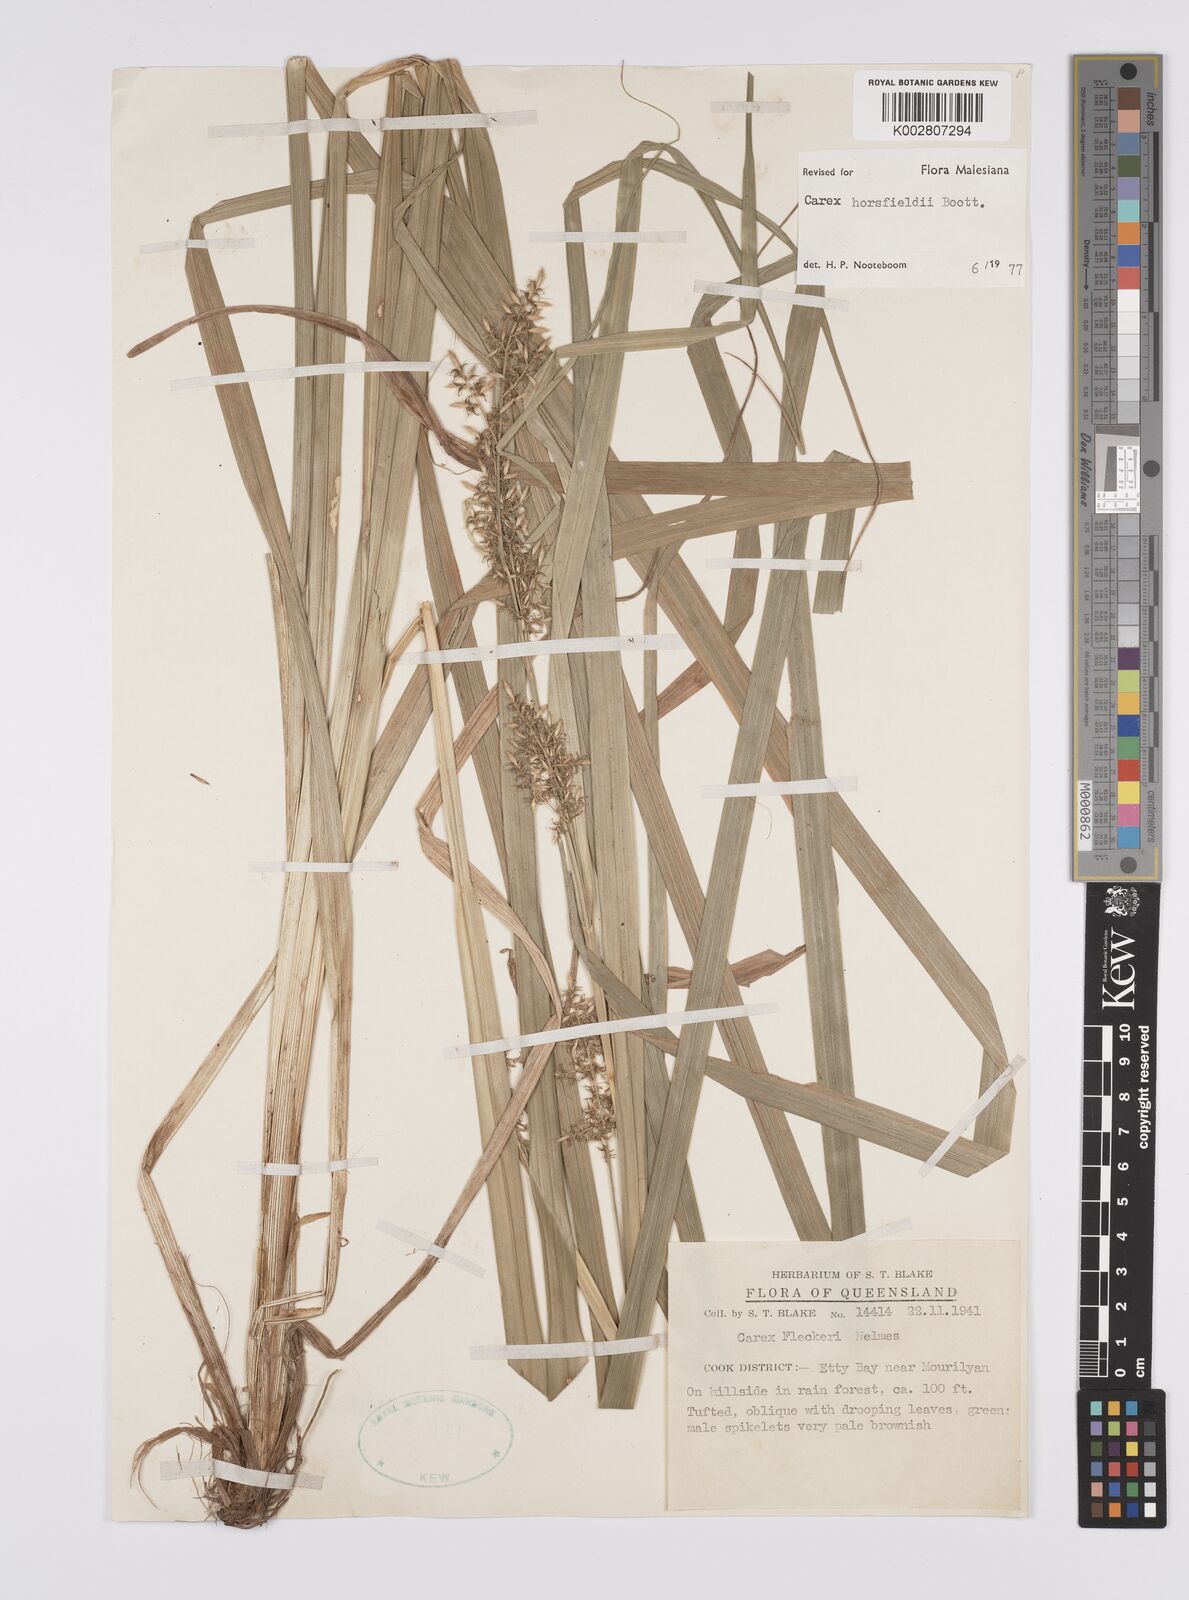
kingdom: Plantae
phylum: Tracheophyta
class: Liliopsida
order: Poales
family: Cyperaceae
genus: Carex
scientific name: Carex horsfieldii
